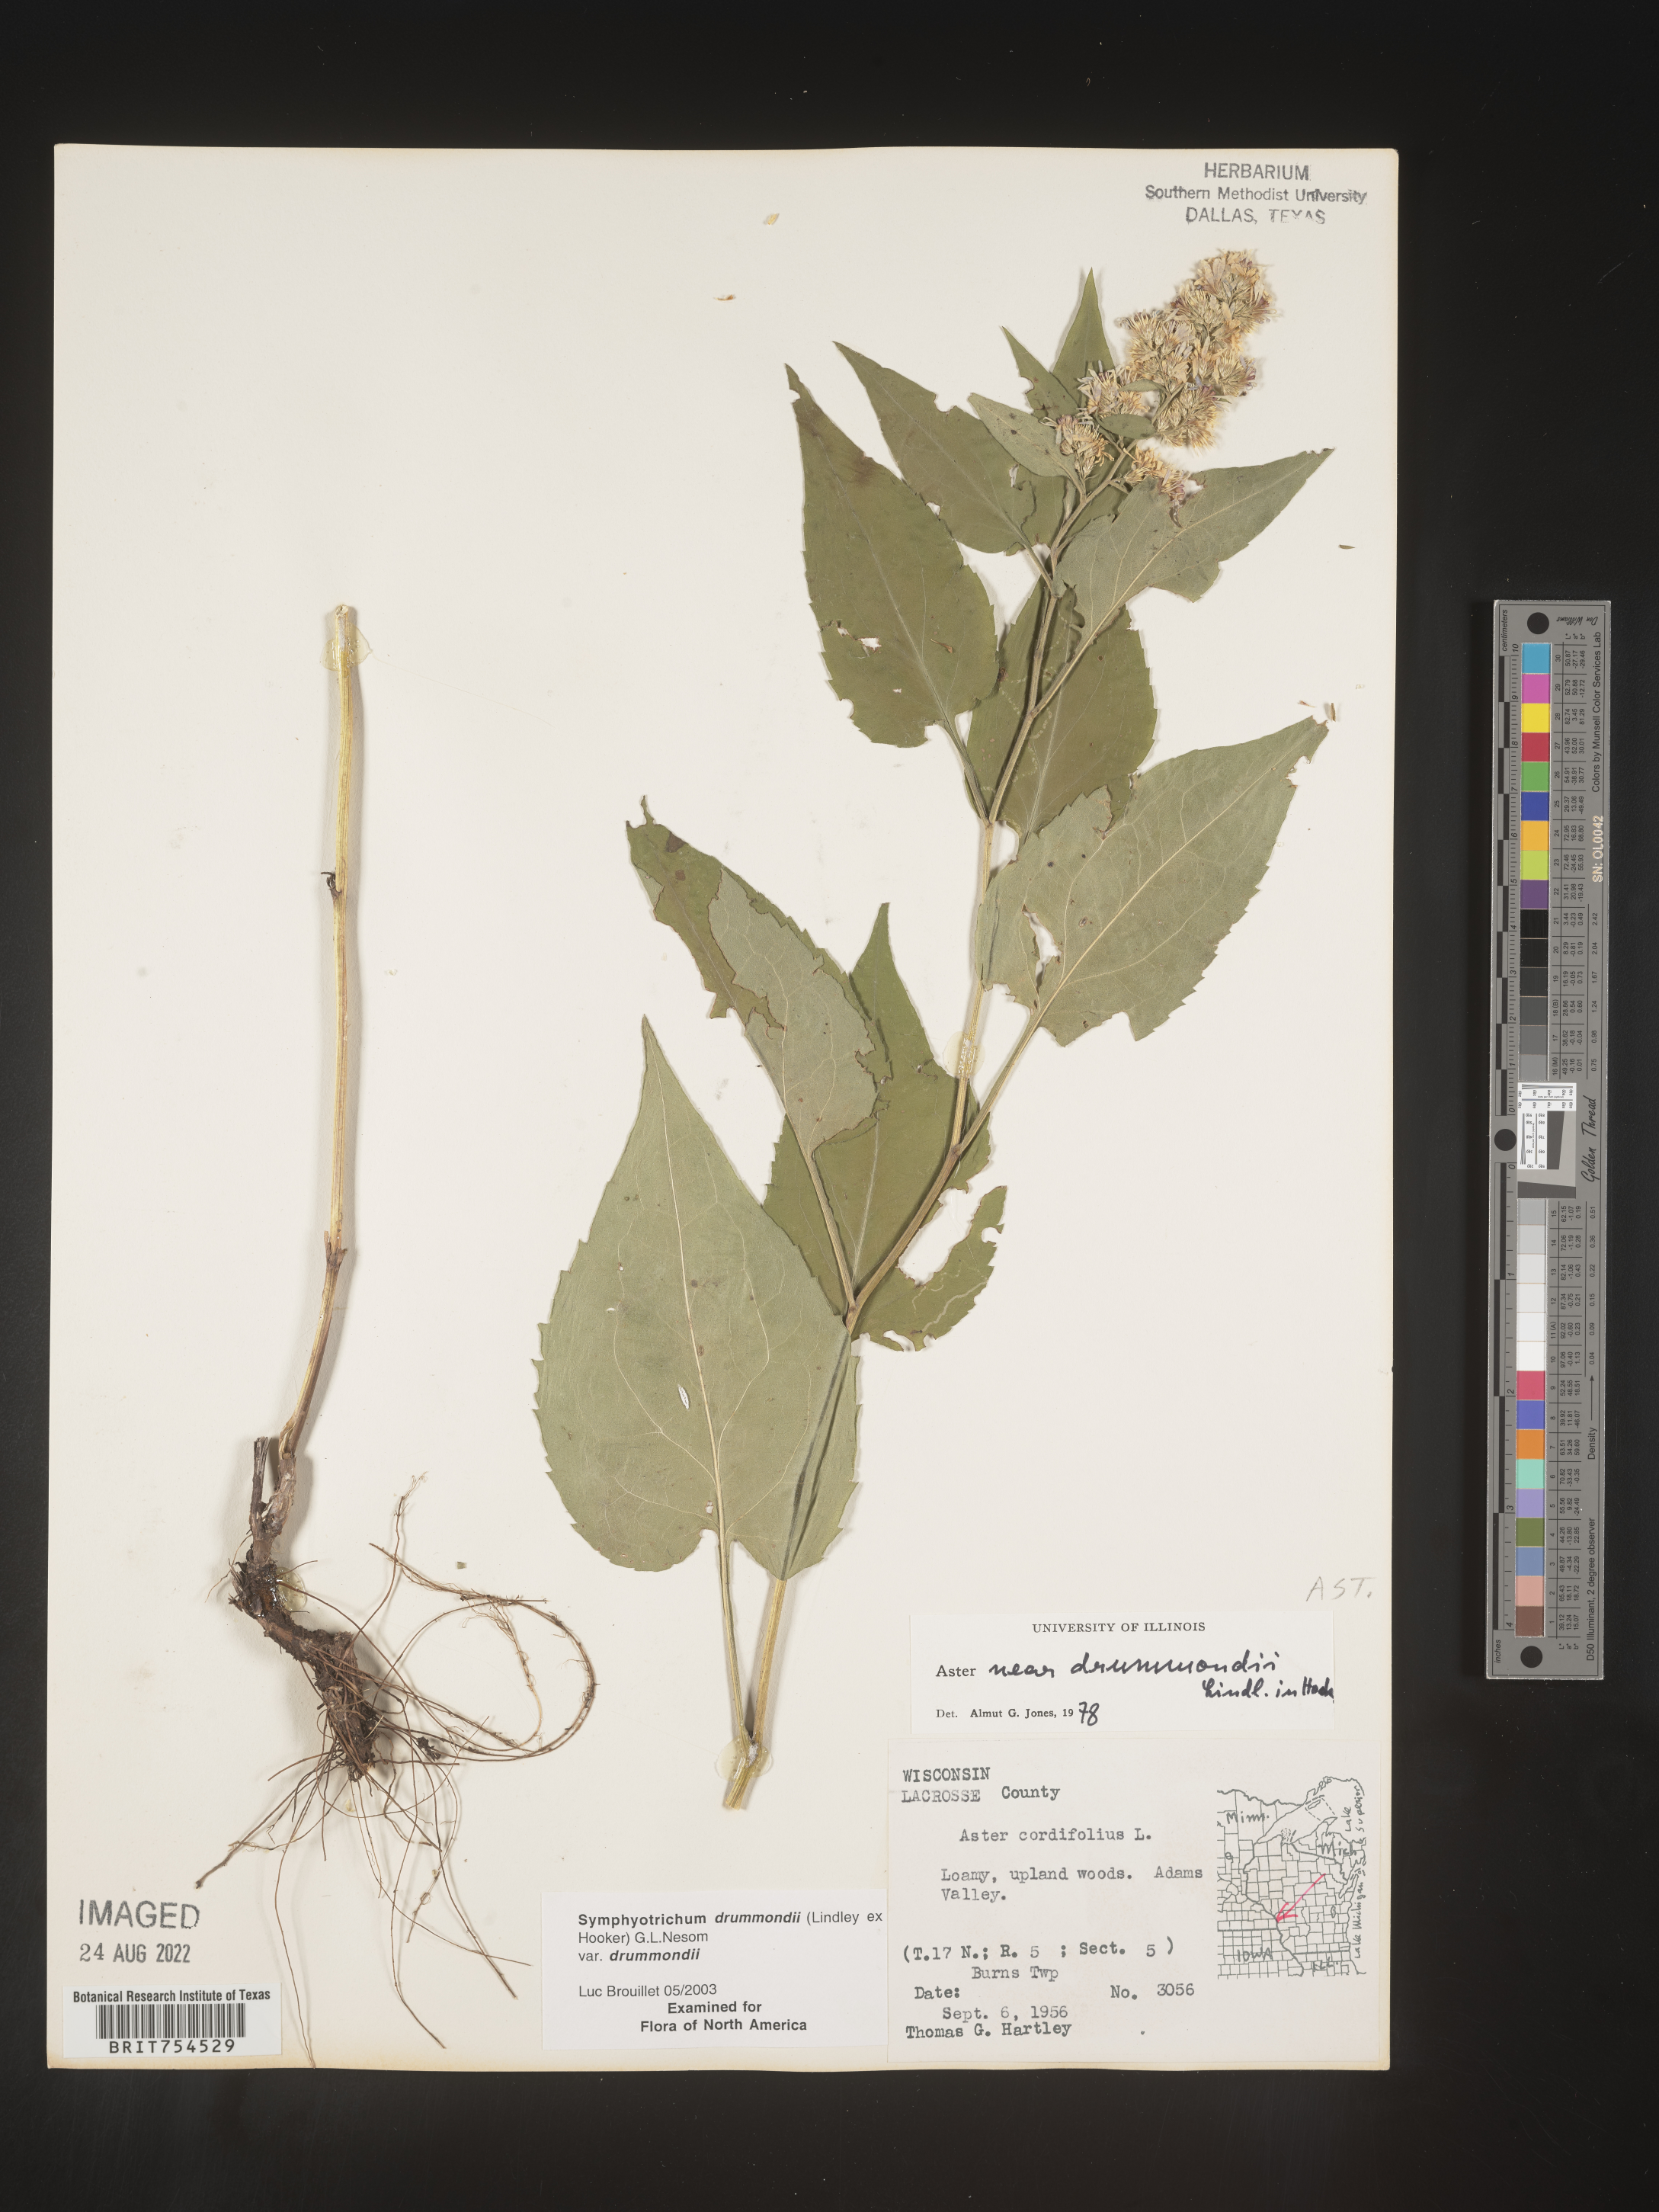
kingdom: Plantae
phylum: Tracheophyta
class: Magnoliopsida
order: Asterales
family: Asteraceae
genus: Symphyotrichum
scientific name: Symphyotrichum drummondii
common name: Drummond's aster
